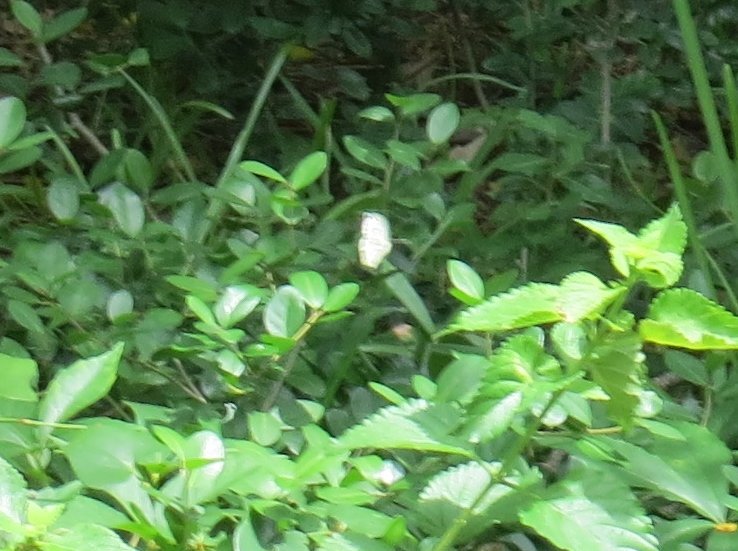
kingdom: Animalia
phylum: Arthropoda
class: Insecta
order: Lepidoptera
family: Pieridae
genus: Pieris
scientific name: Pieris rapae
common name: Cabbage White
